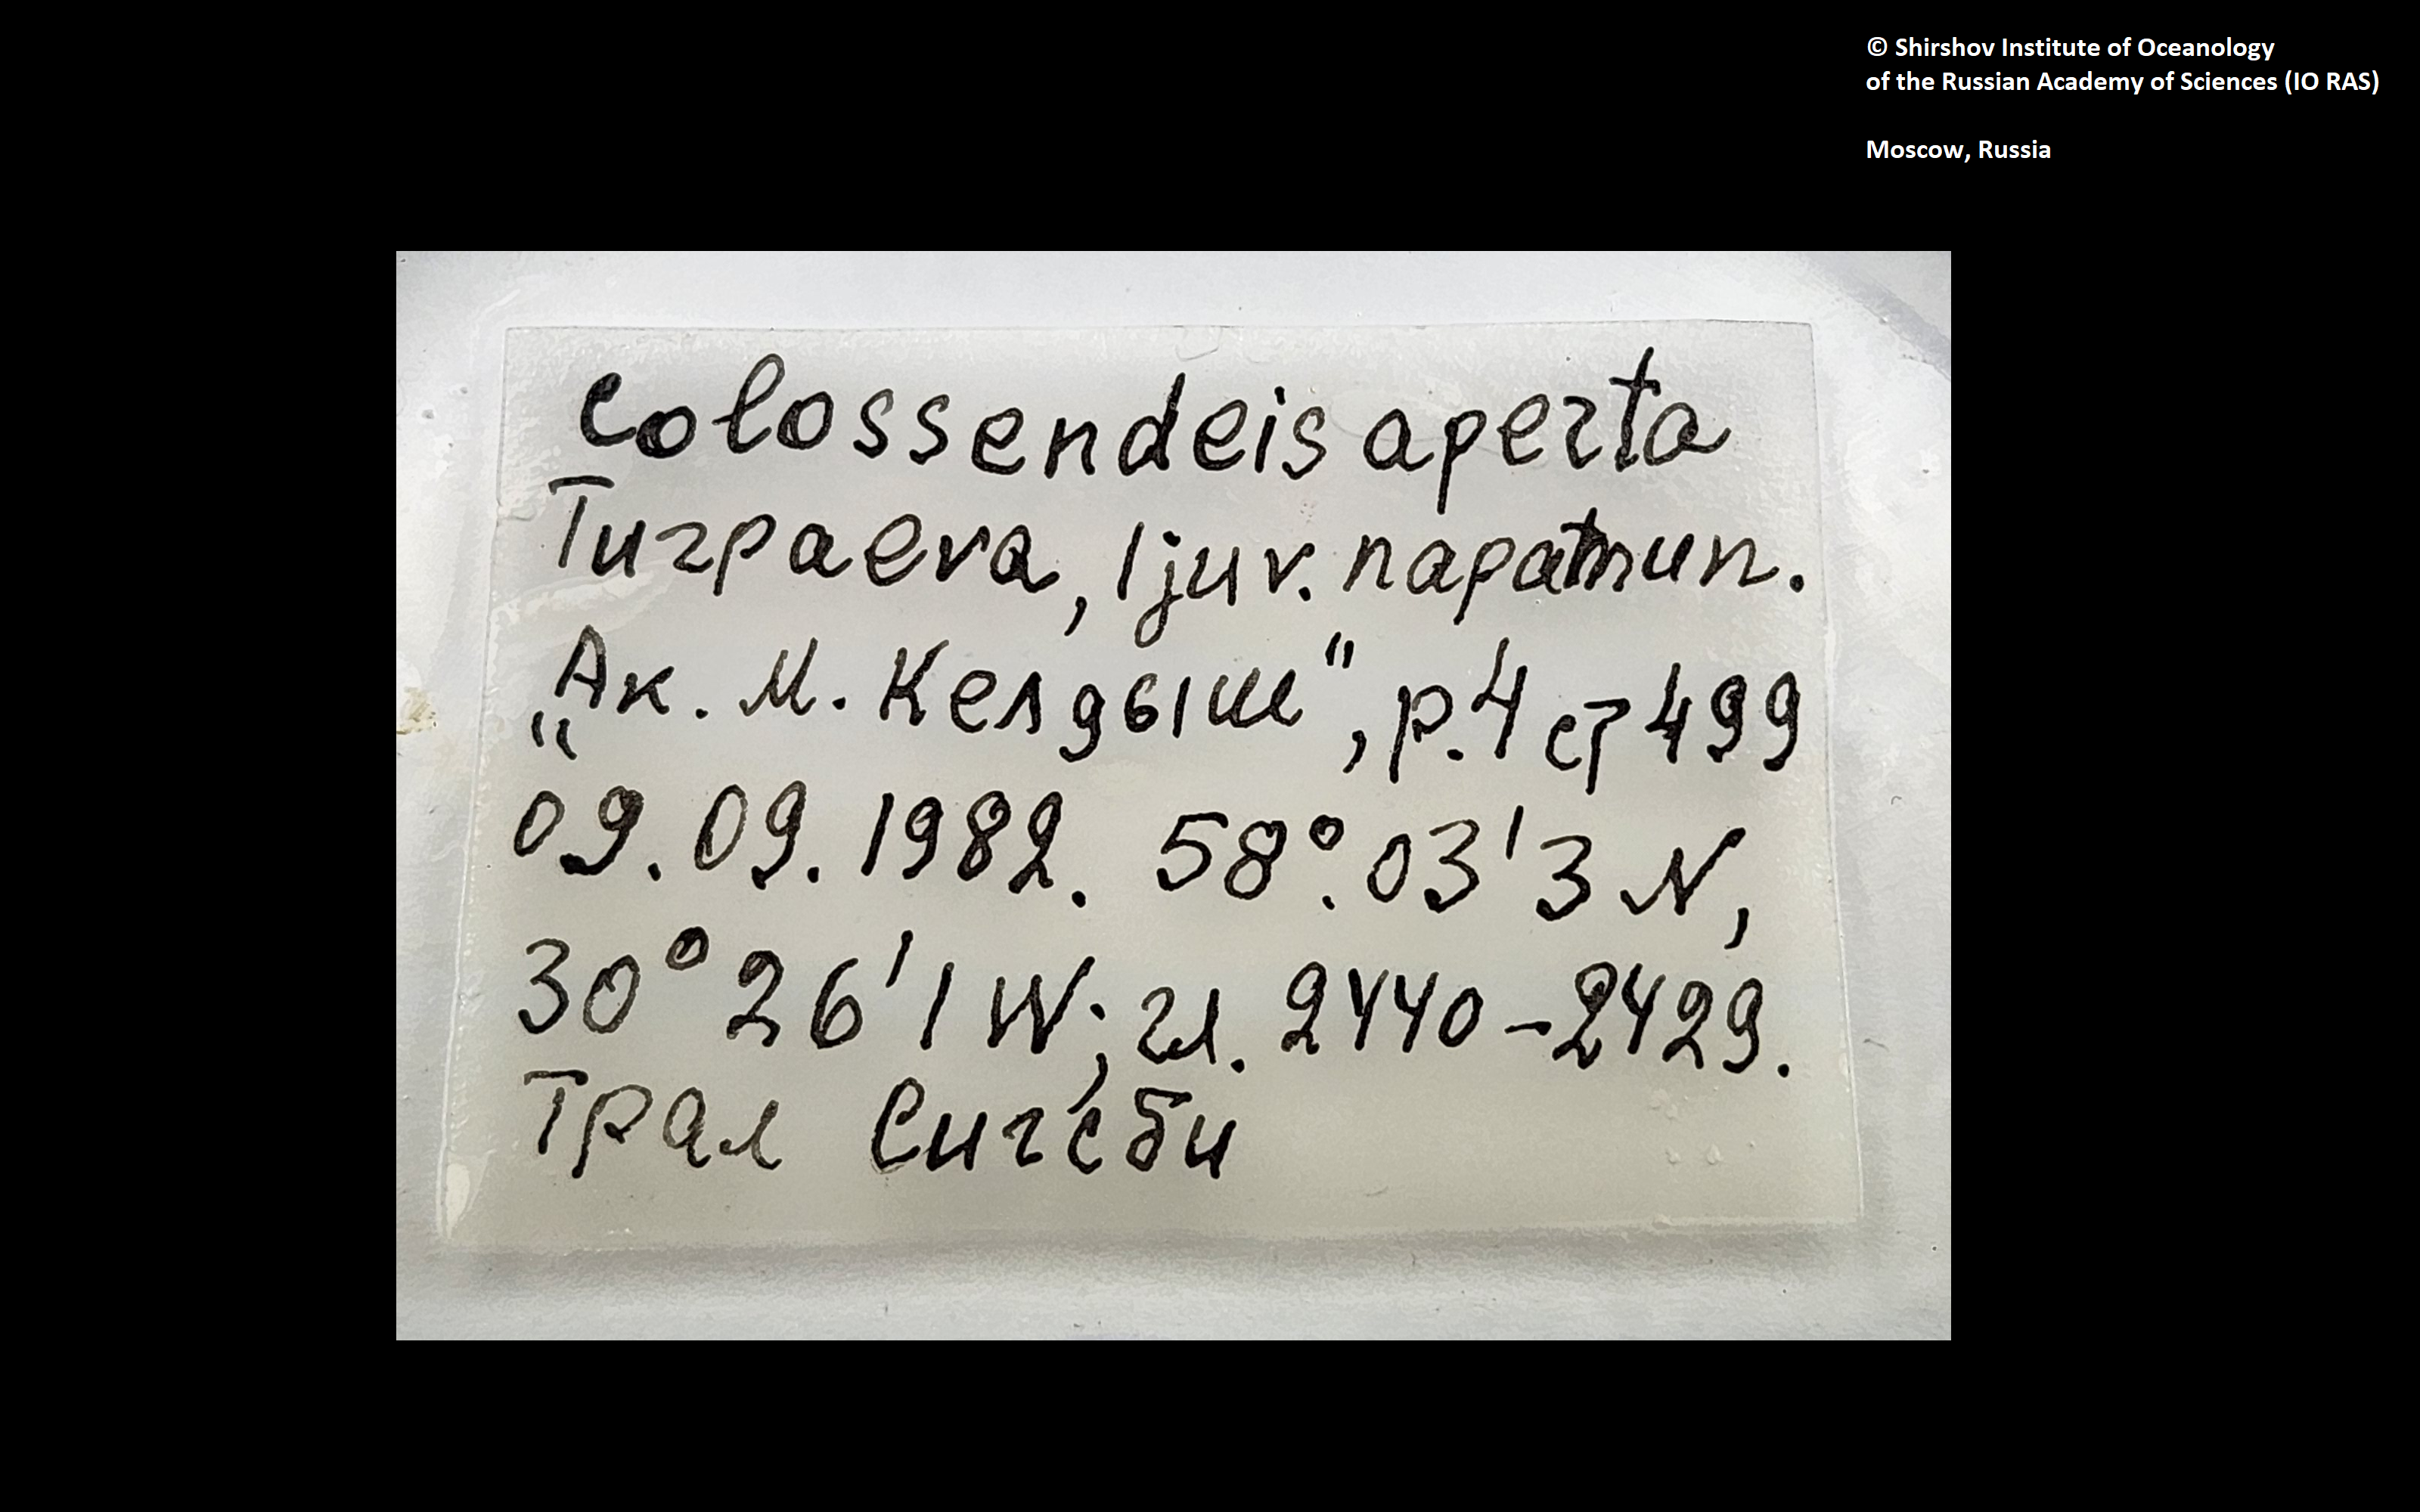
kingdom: Animalia
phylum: Arthropoda
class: Pycnogonida
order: Pantopoda
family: Colossendeidae
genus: Colossendeis
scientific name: Colossendeis aperta
